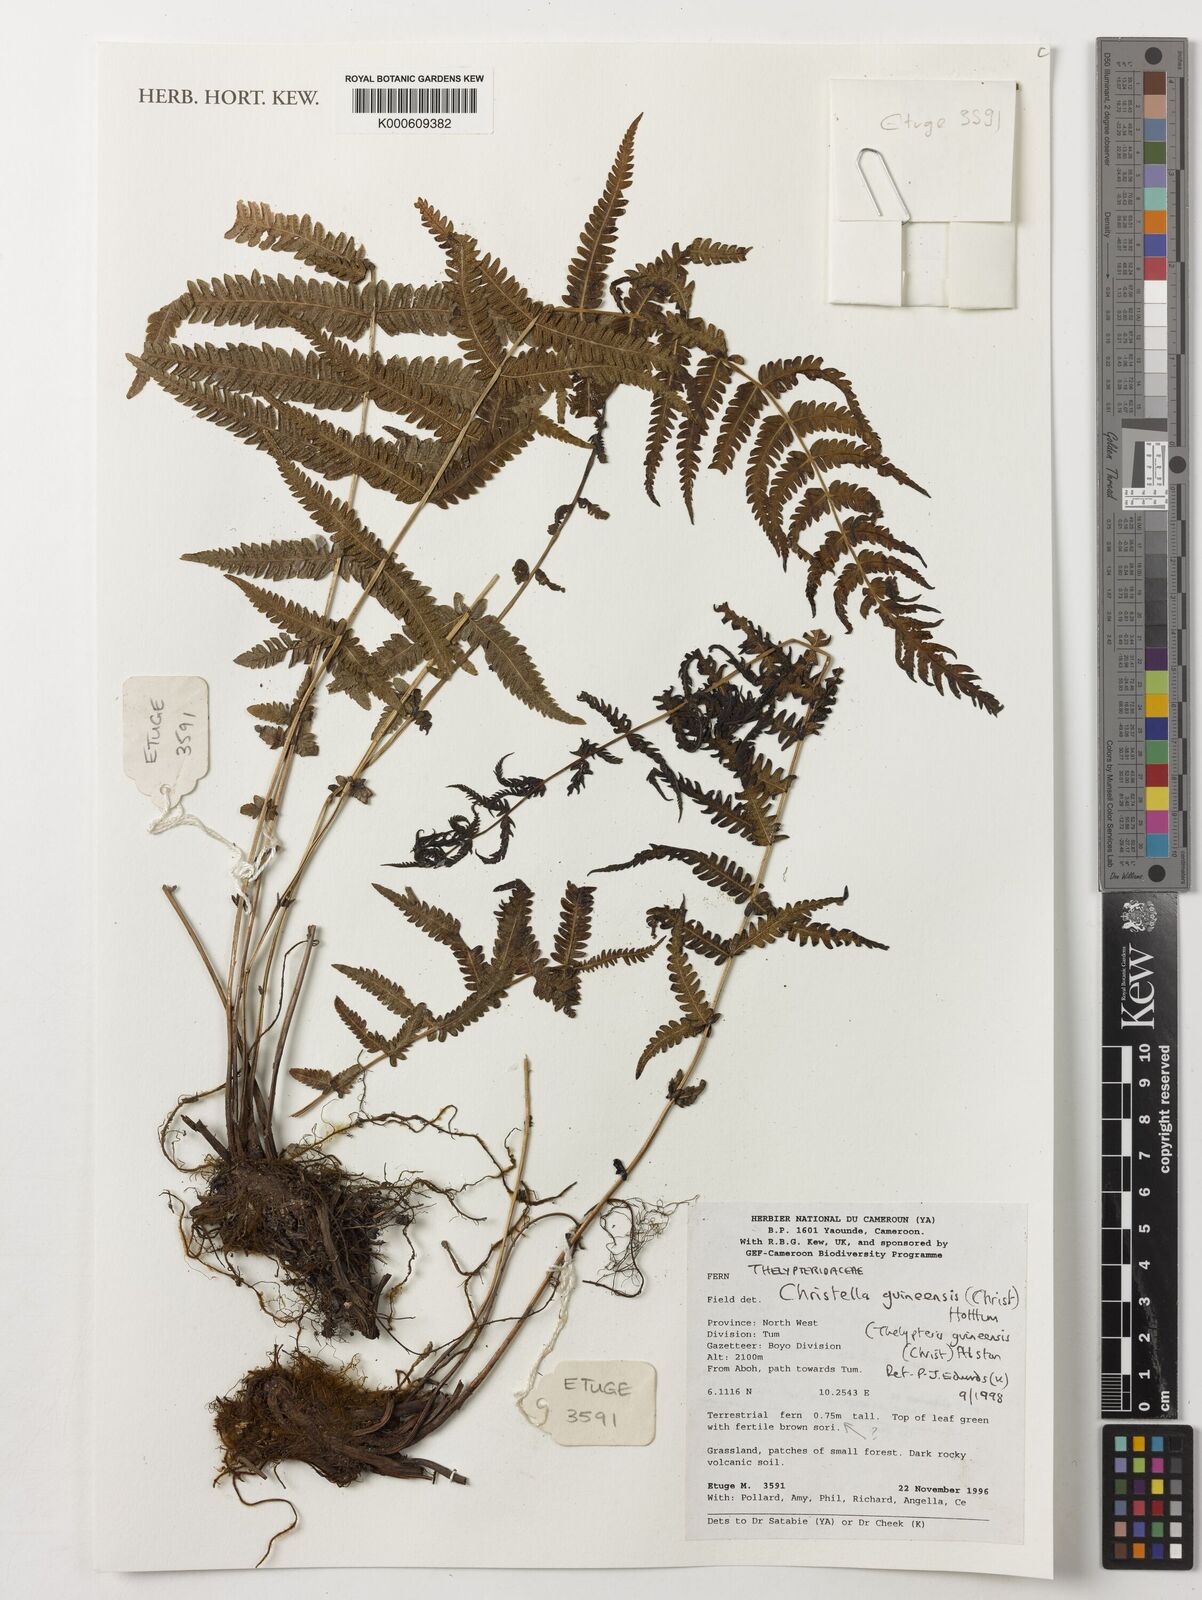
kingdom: Plantae
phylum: Tracheophyta
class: Polypodiopsida
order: Polypodiales
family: Thelypteridaceae
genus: Christella
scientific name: Christella guineensis
